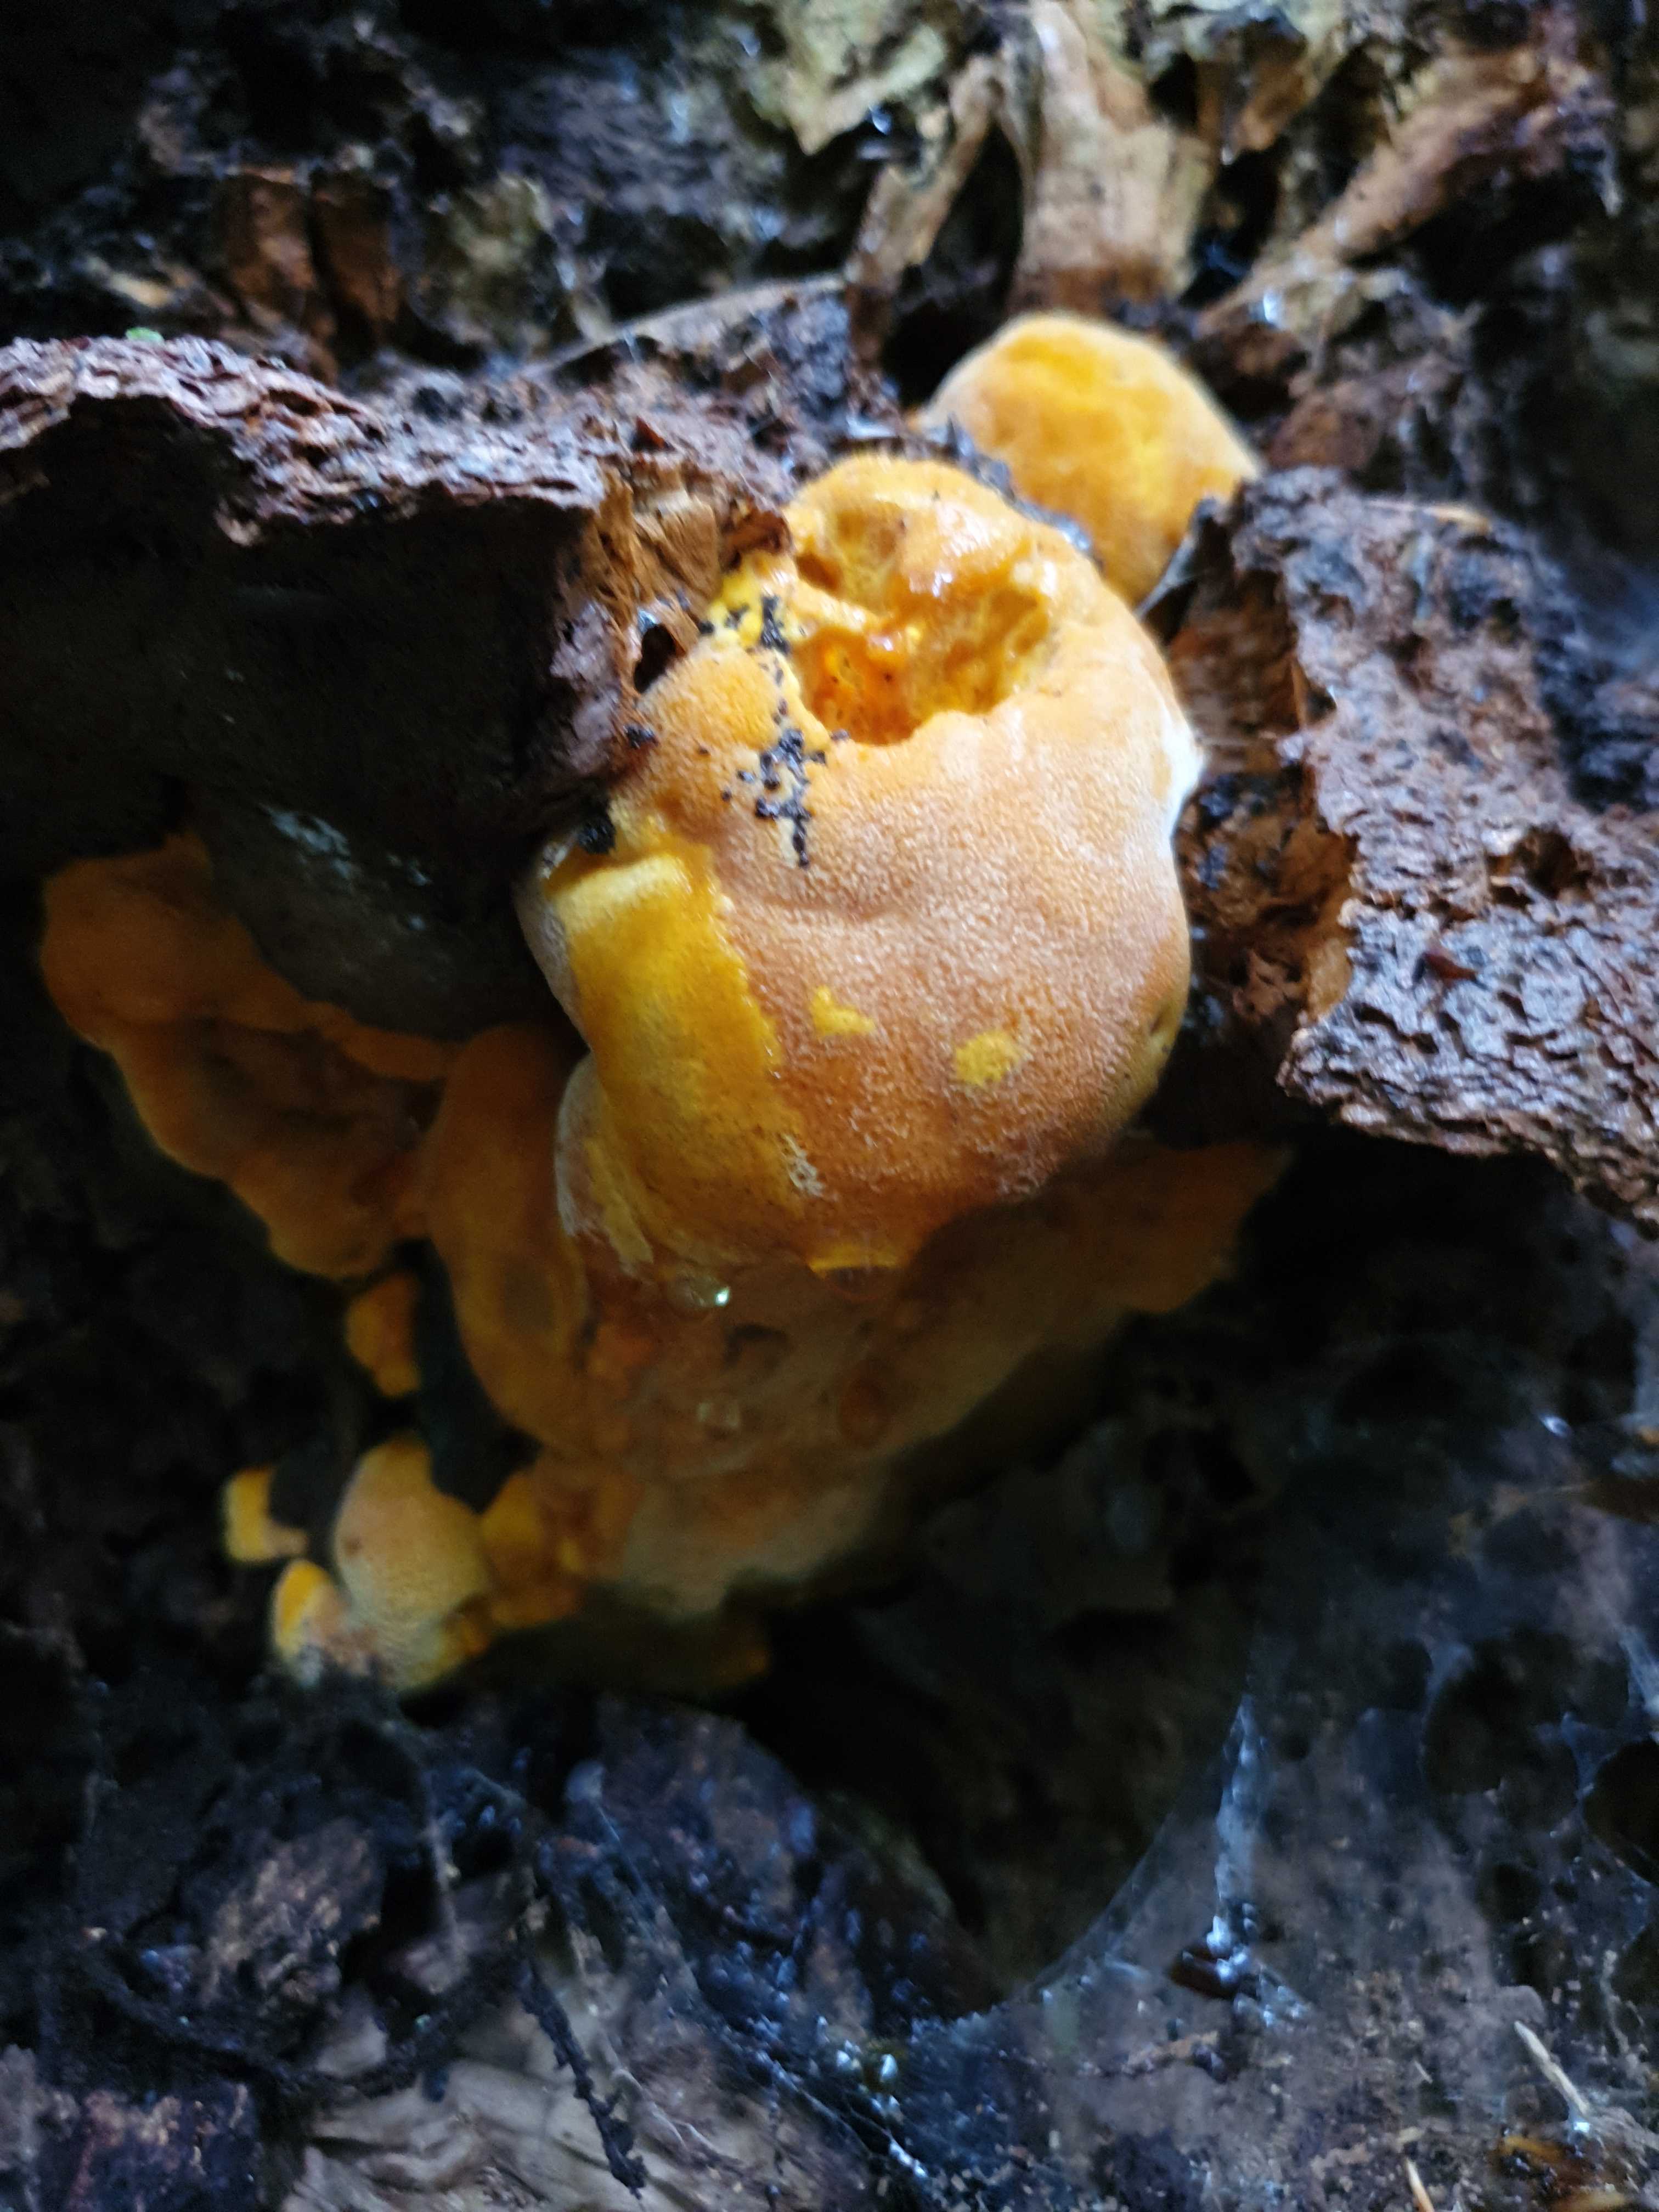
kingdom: Fungi
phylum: Basidiomycota
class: Agaricomycetes
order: Polyporales
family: Phanerochaetaceae
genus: Hapalopilus
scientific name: Hapalopilus croceus
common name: safrangul pragtporesvamp
